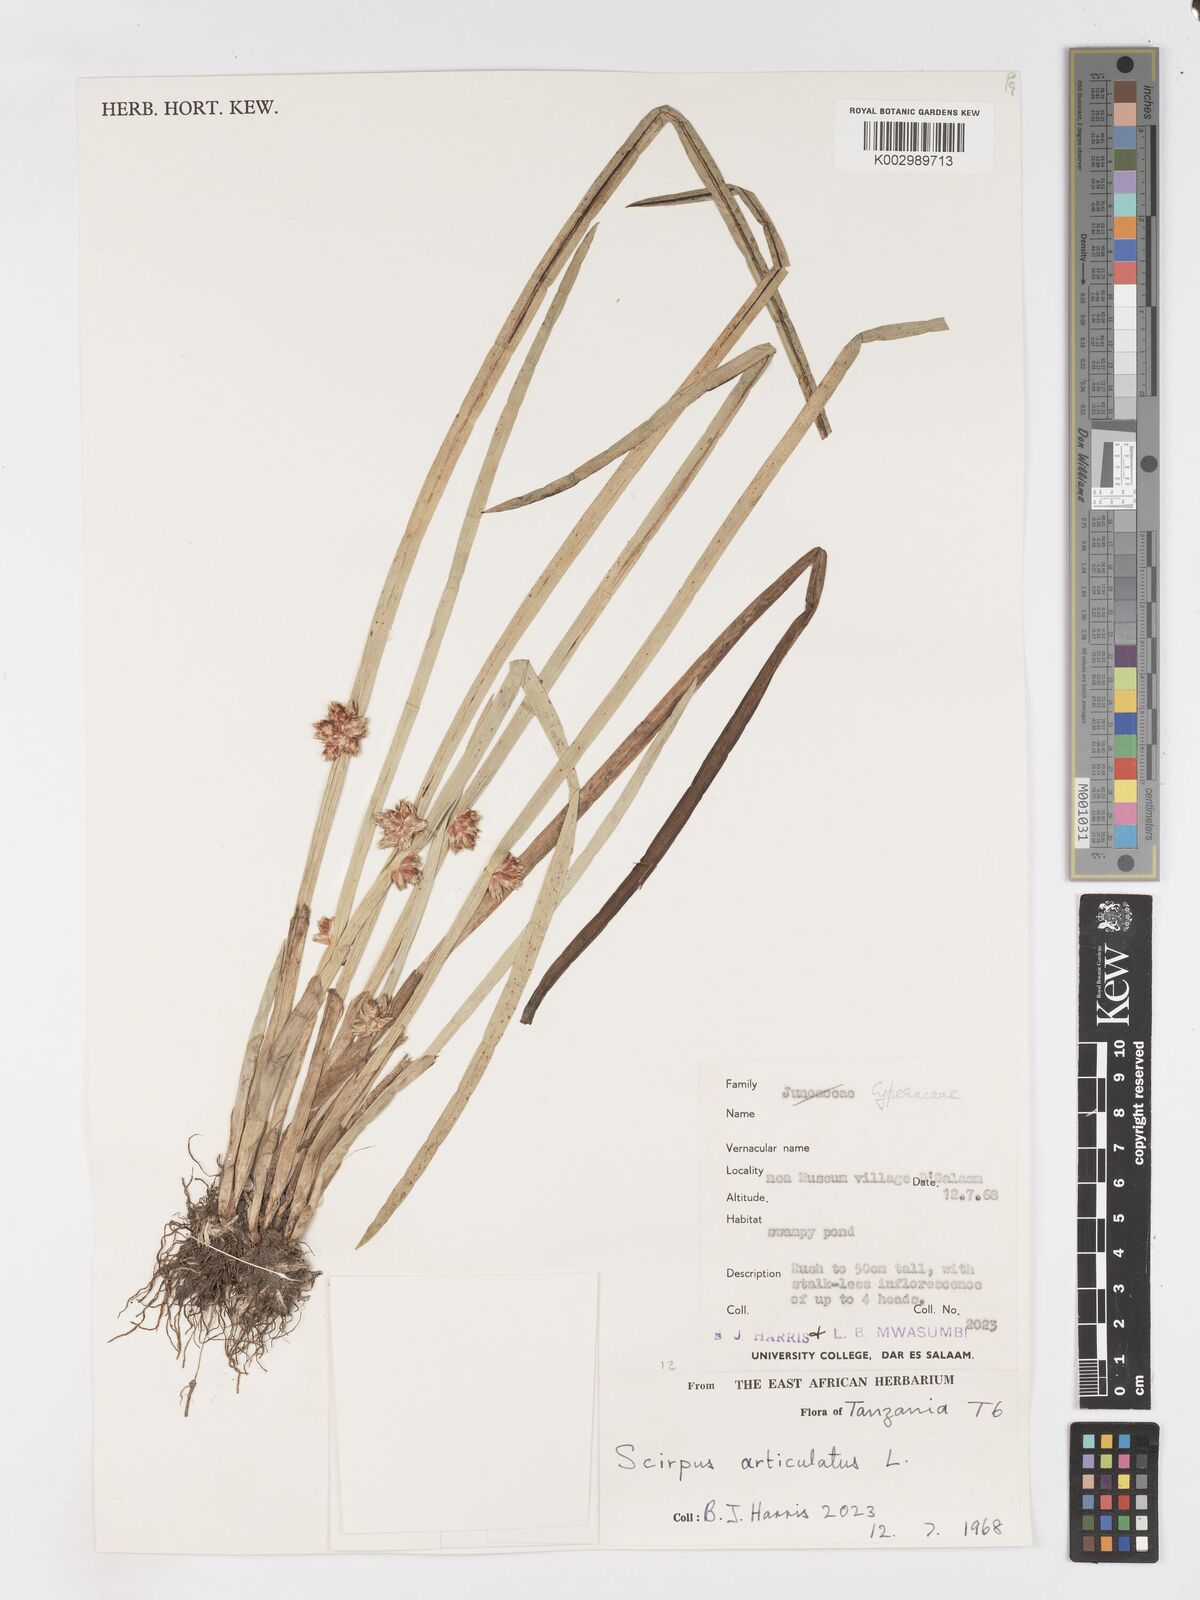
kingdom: Plantae
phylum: Tracheophyta
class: Liliopsida
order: Poales
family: Cyperaceae
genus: Schoenoplectiella
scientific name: Schoenoplectiella articulata
